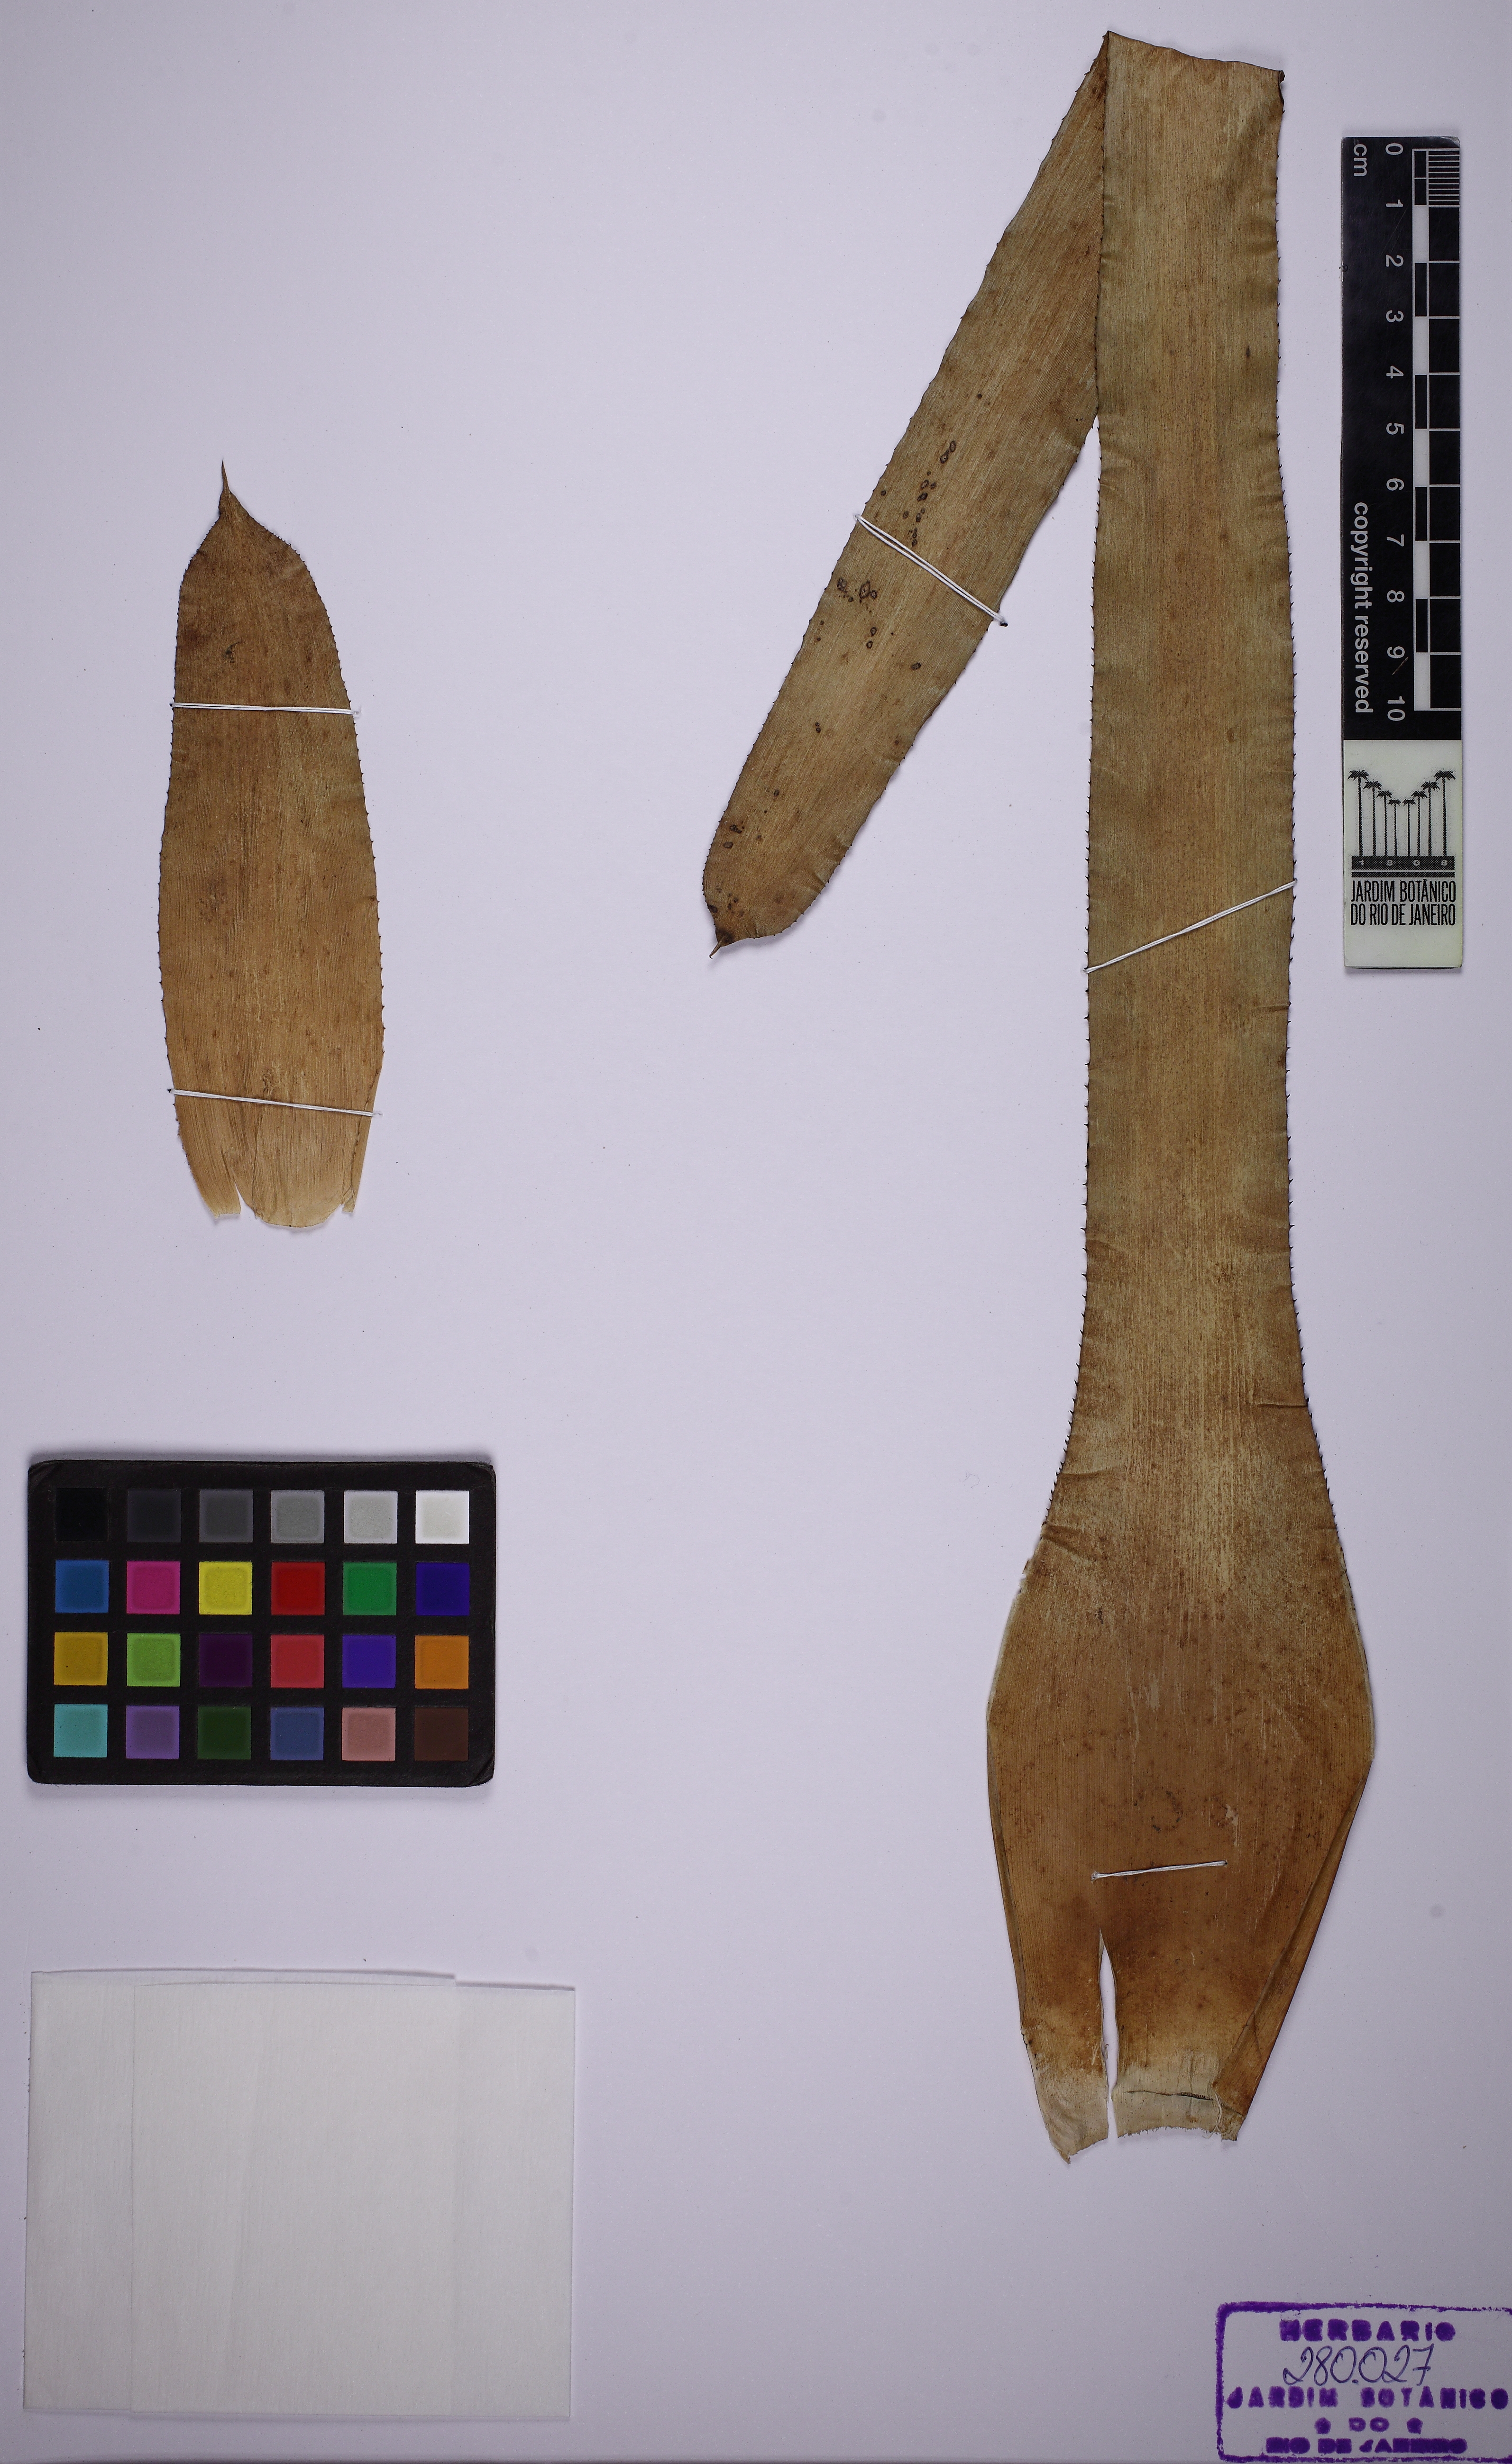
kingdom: Plantae
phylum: Tracheophyta
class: Liliopsida
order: Poales
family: Bromeliaceae
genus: Wittmackia
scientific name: Wittmackia burle-marxii
